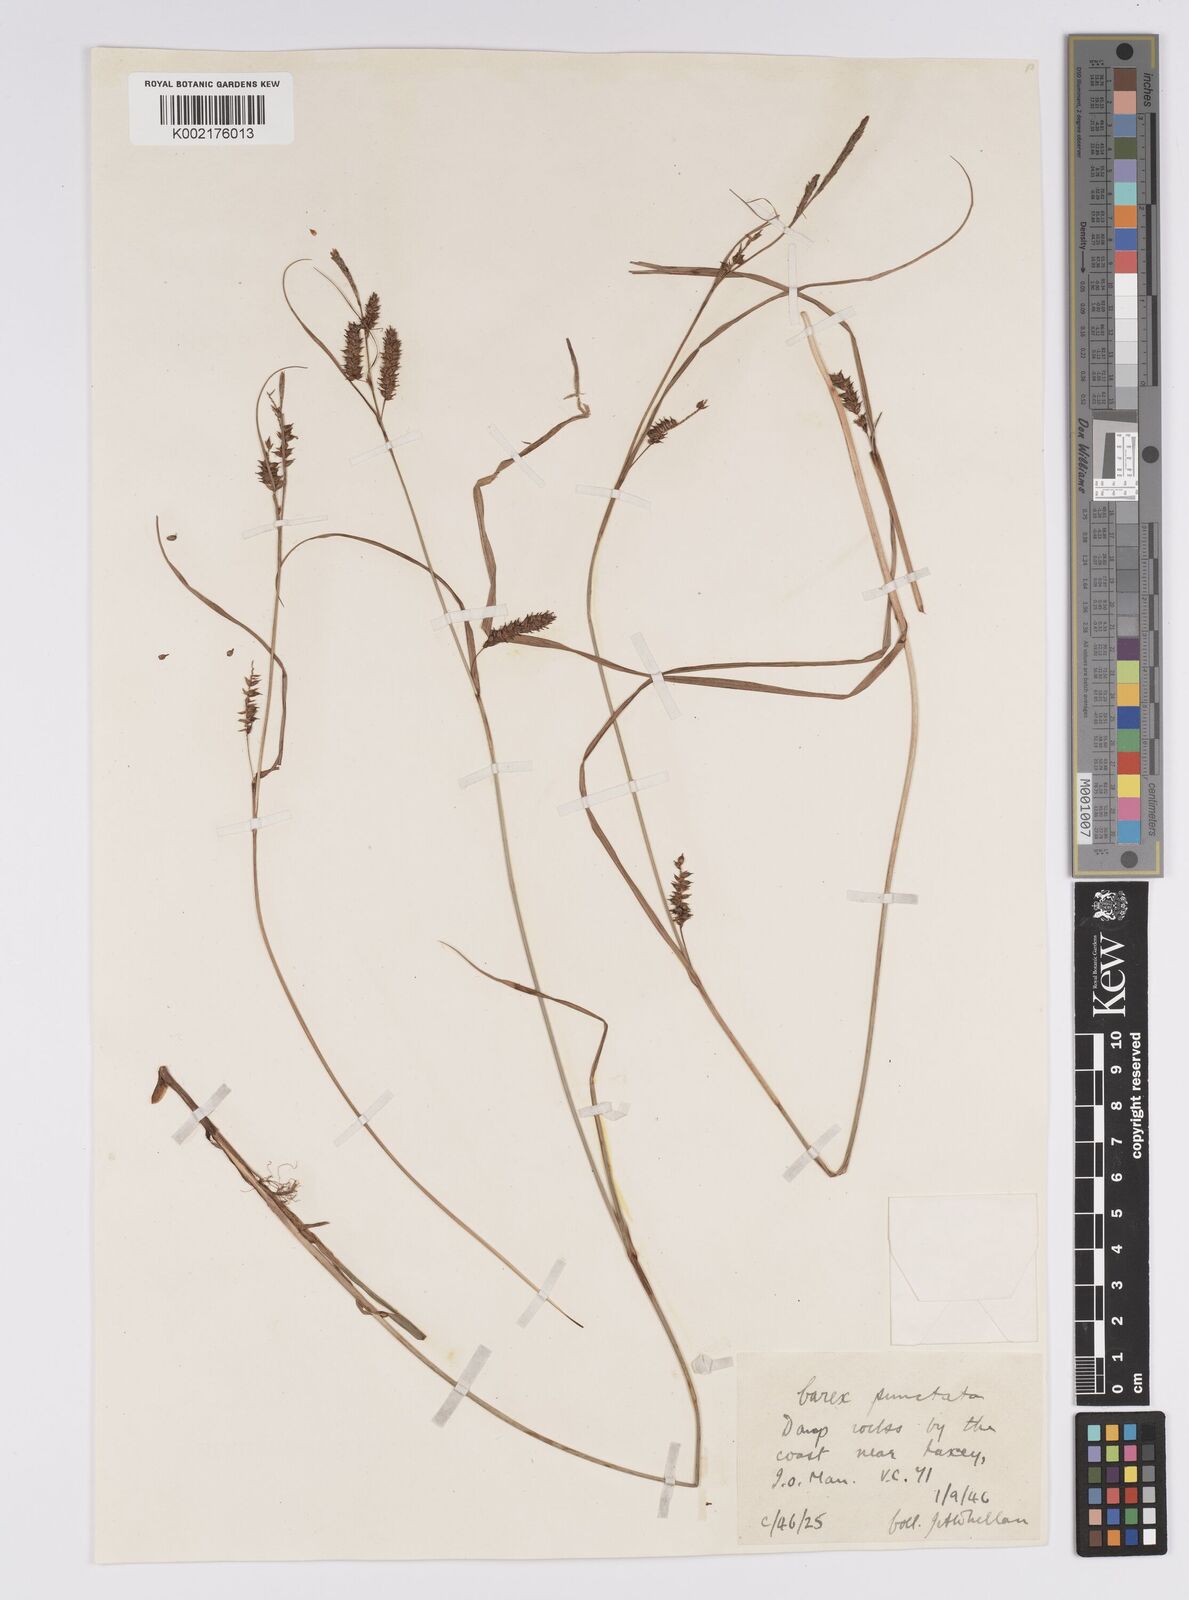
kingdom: Plantae
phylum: Tracheophyta
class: Liliopsida
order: Poales
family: Cyperaceae
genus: Carex
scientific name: Carex punctata
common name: Dotted sedge
